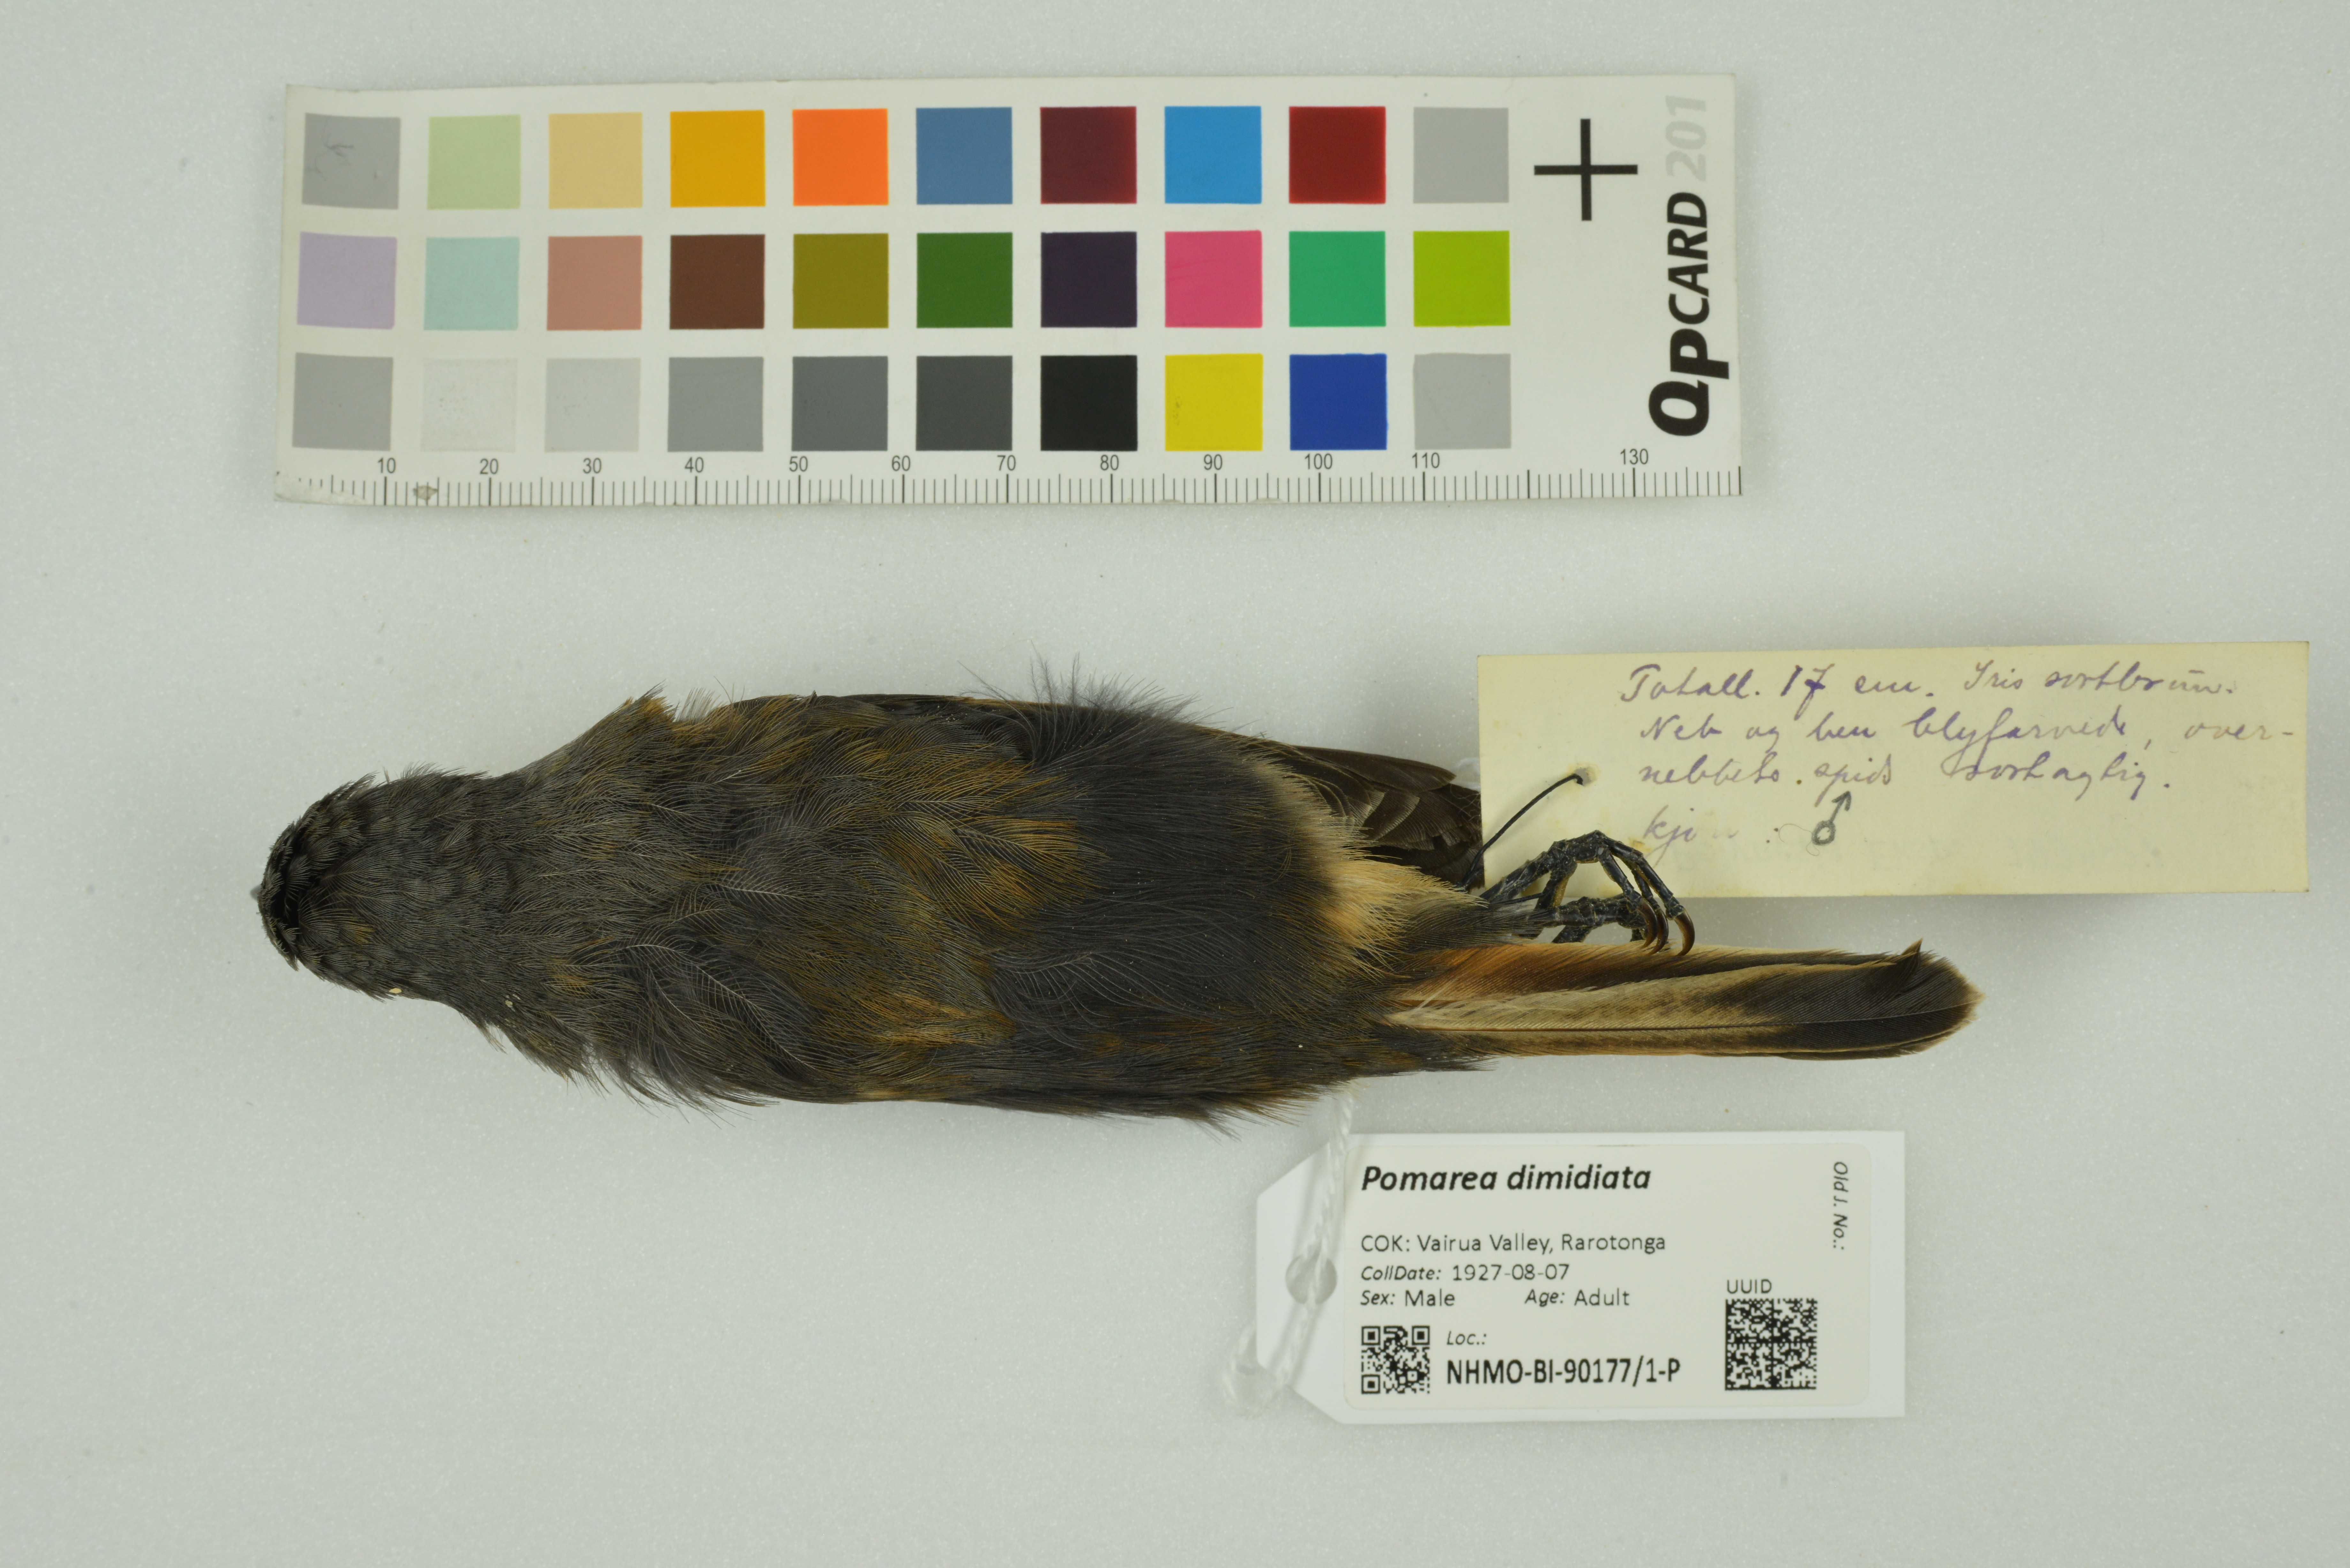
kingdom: Animalia
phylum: Chordata
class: Aves
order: Passeriformes
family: Monarchidae
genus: Pomarea
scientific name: Pomarea dimidiata
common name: Rarotonga monarch
